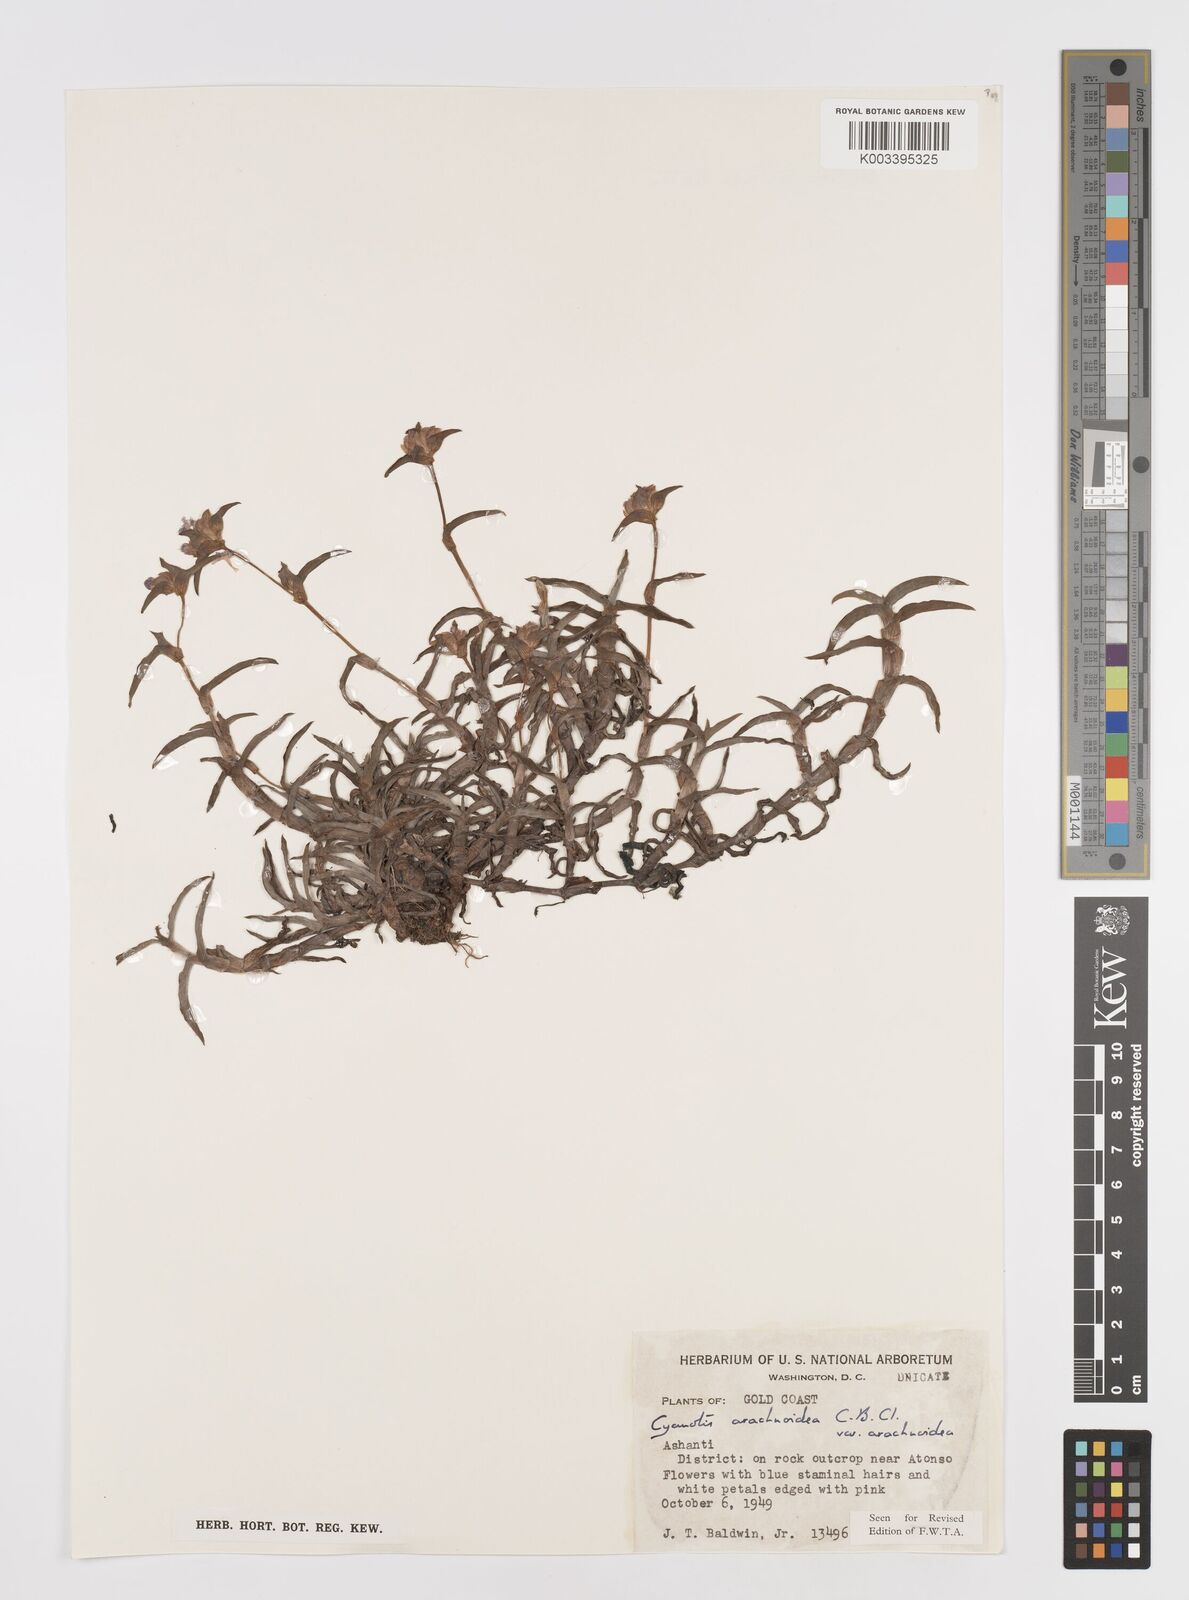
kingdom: Plantae
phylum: Tracheophyta
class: Liliopsida
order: Commelinales
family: Commelinaceae
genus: Cyanotis
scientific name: Cyanotis arachnoidea
